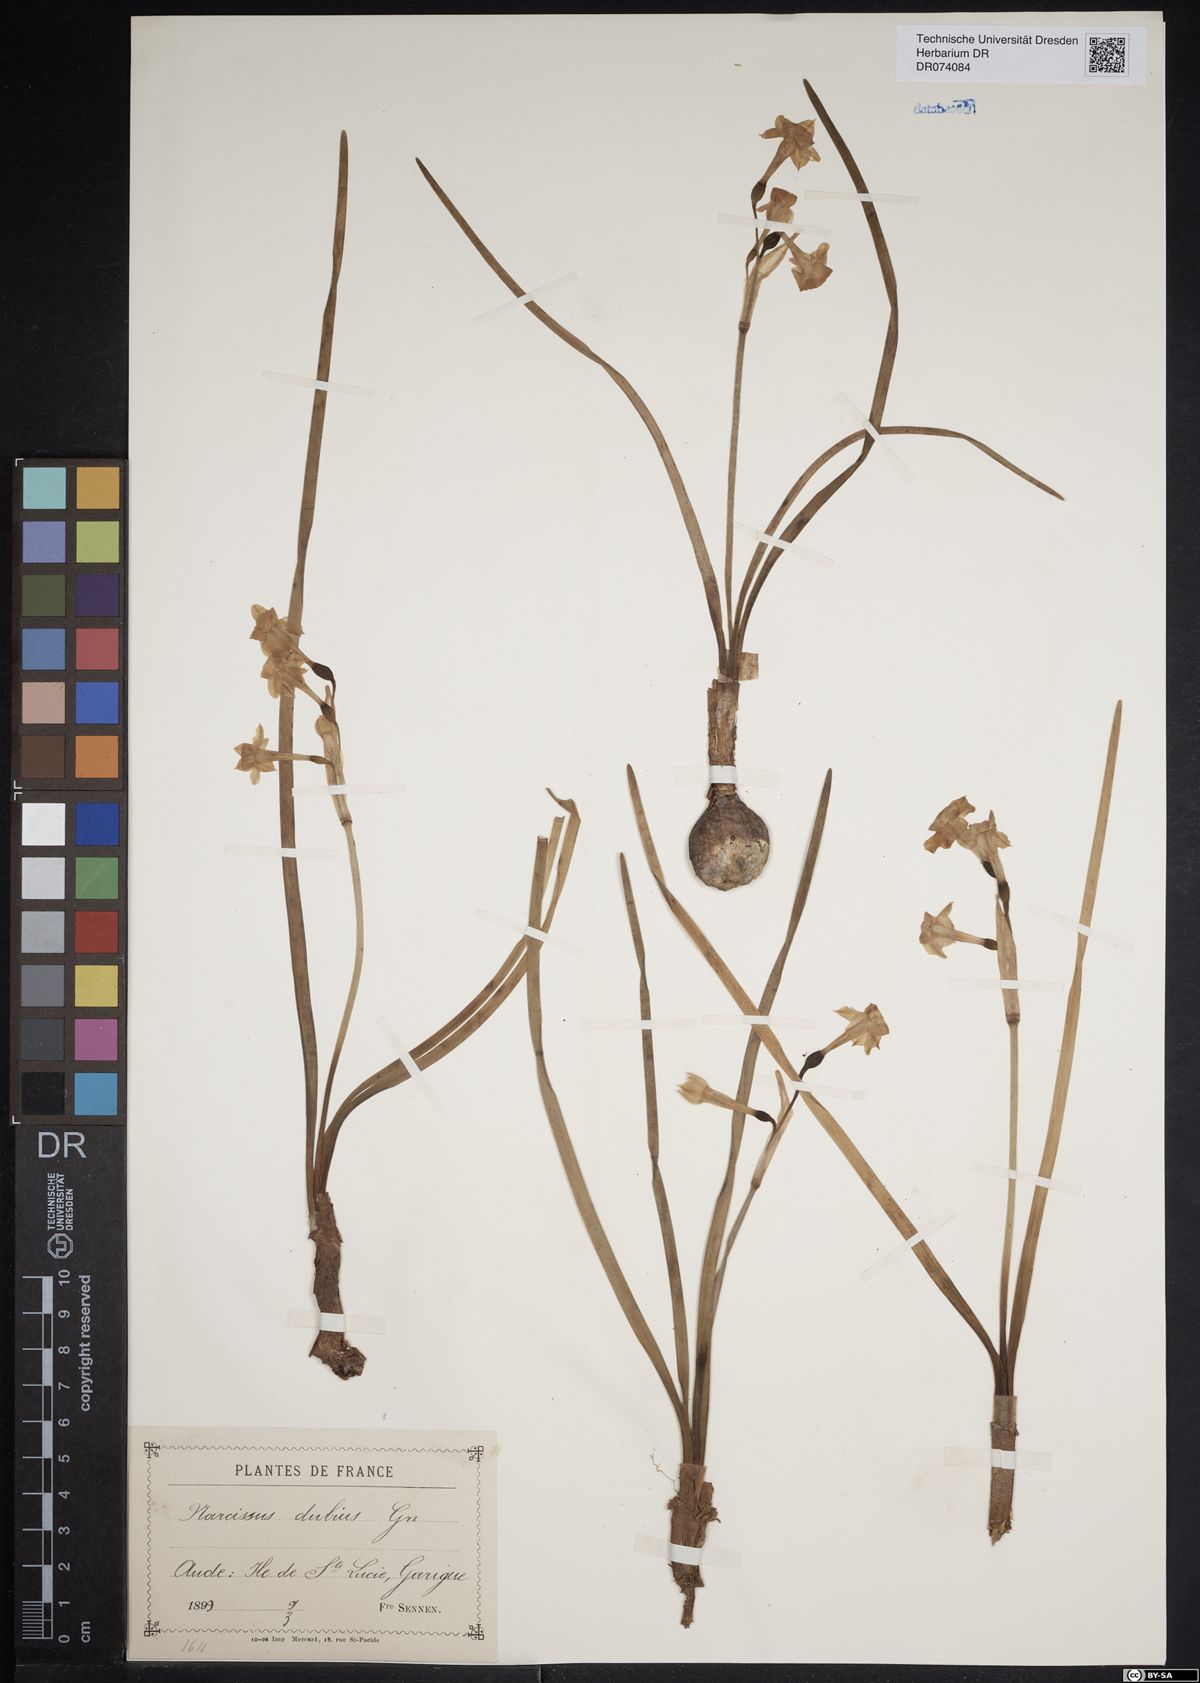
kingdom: Plantae
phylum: Tracheophyta
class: Liliopsida
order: Asparagales
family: Amaryllidaceae
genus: Narcissus
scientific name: Narcissus dubius
